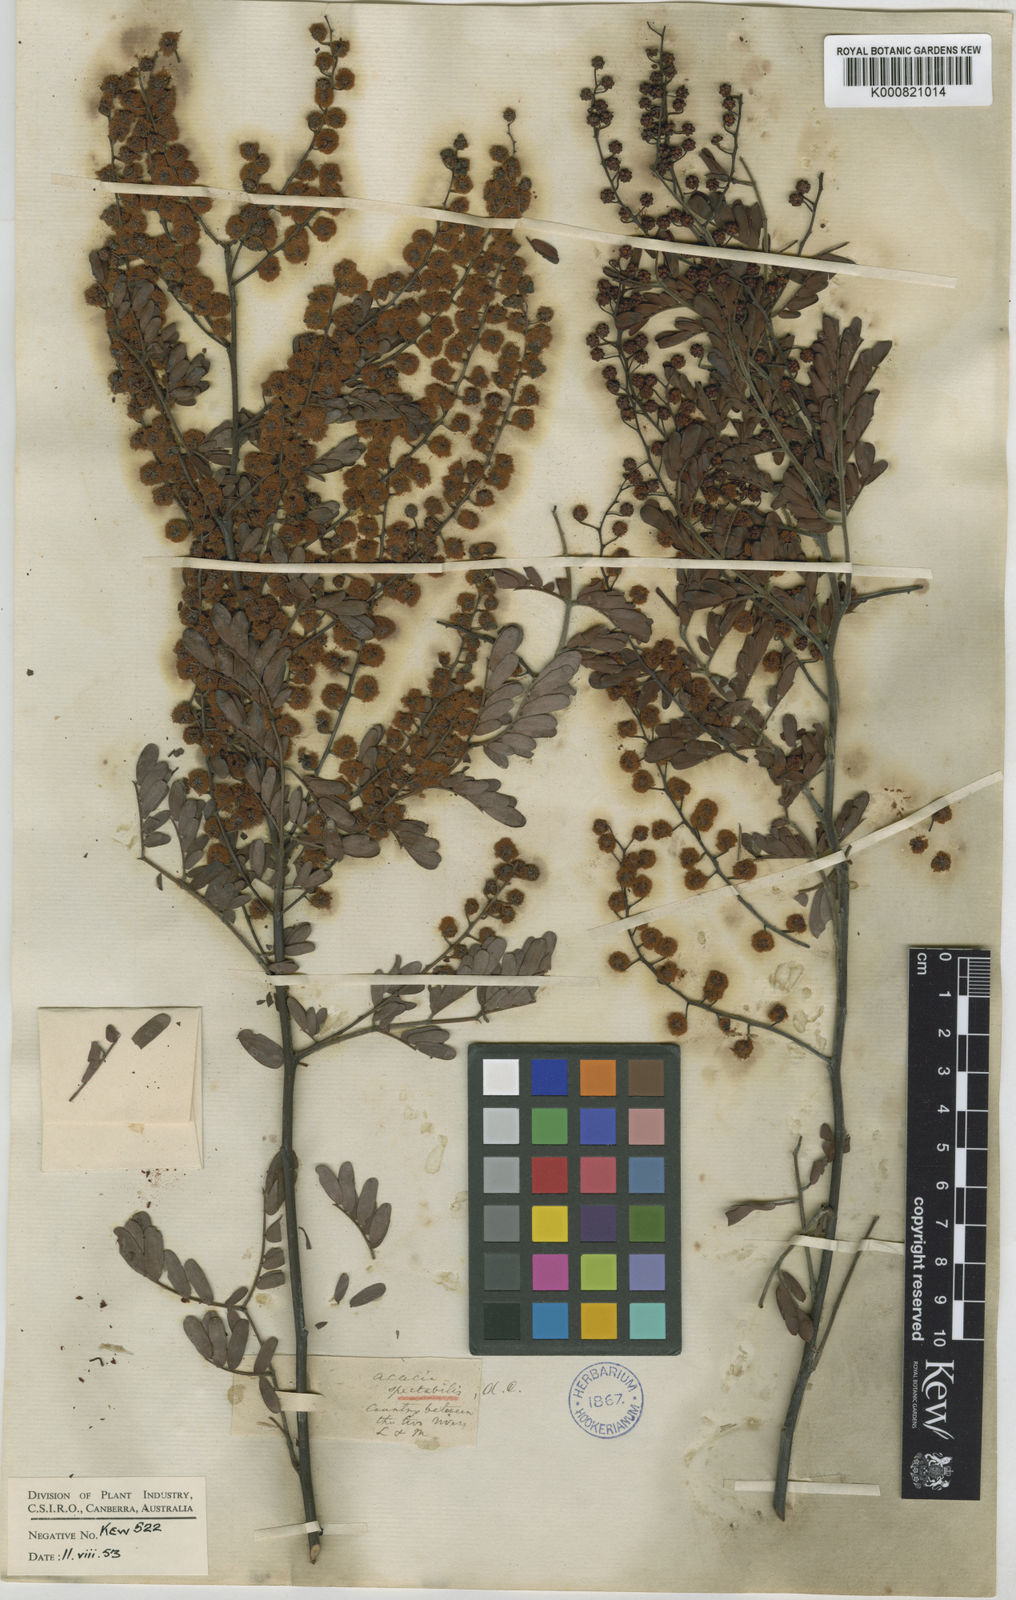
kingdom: Plantae
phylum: Tracheophyta
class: Magnoliopsida
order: Fabales
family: Fabaceae
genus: Acacia
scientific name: Acacia spectabilis
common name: Golden wattle
